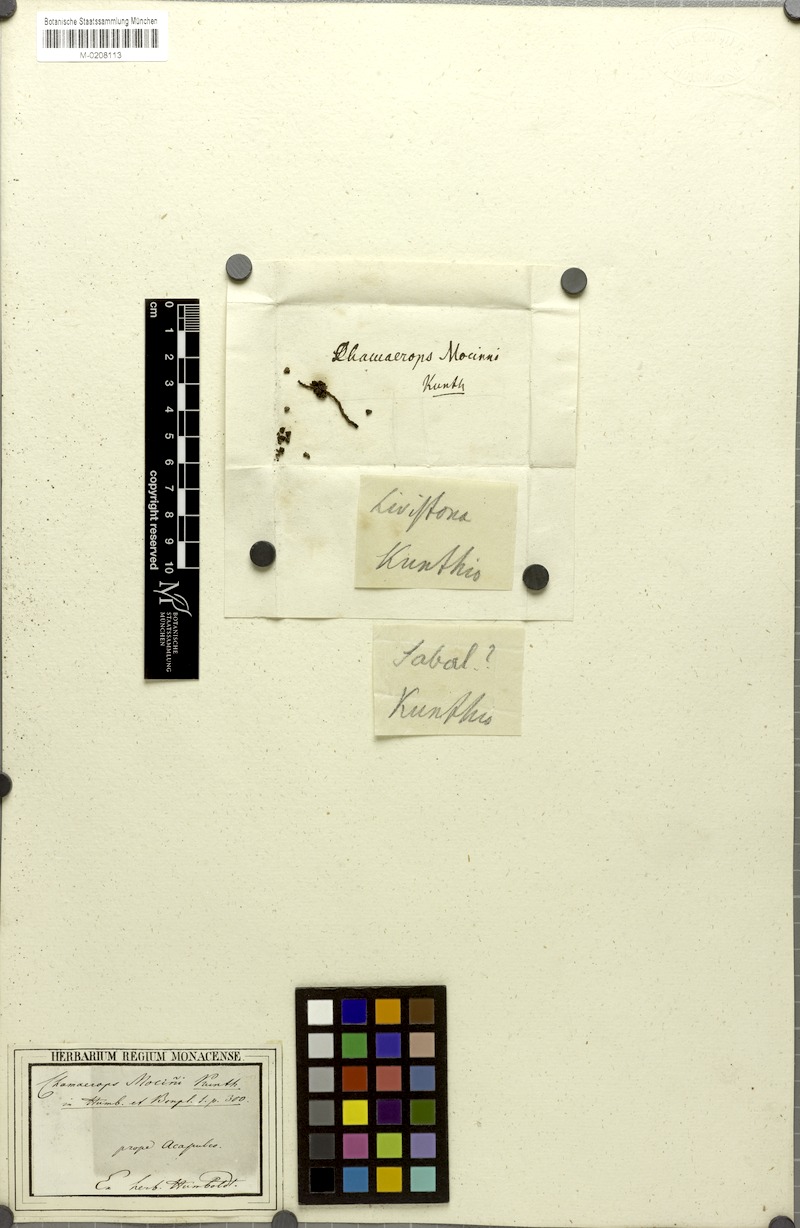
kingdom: Plantae
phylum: Tracheophyta
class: Liliopsida
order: Arecales
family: Arecaceae
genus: Cryosophila
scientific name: Cryosophila nana
